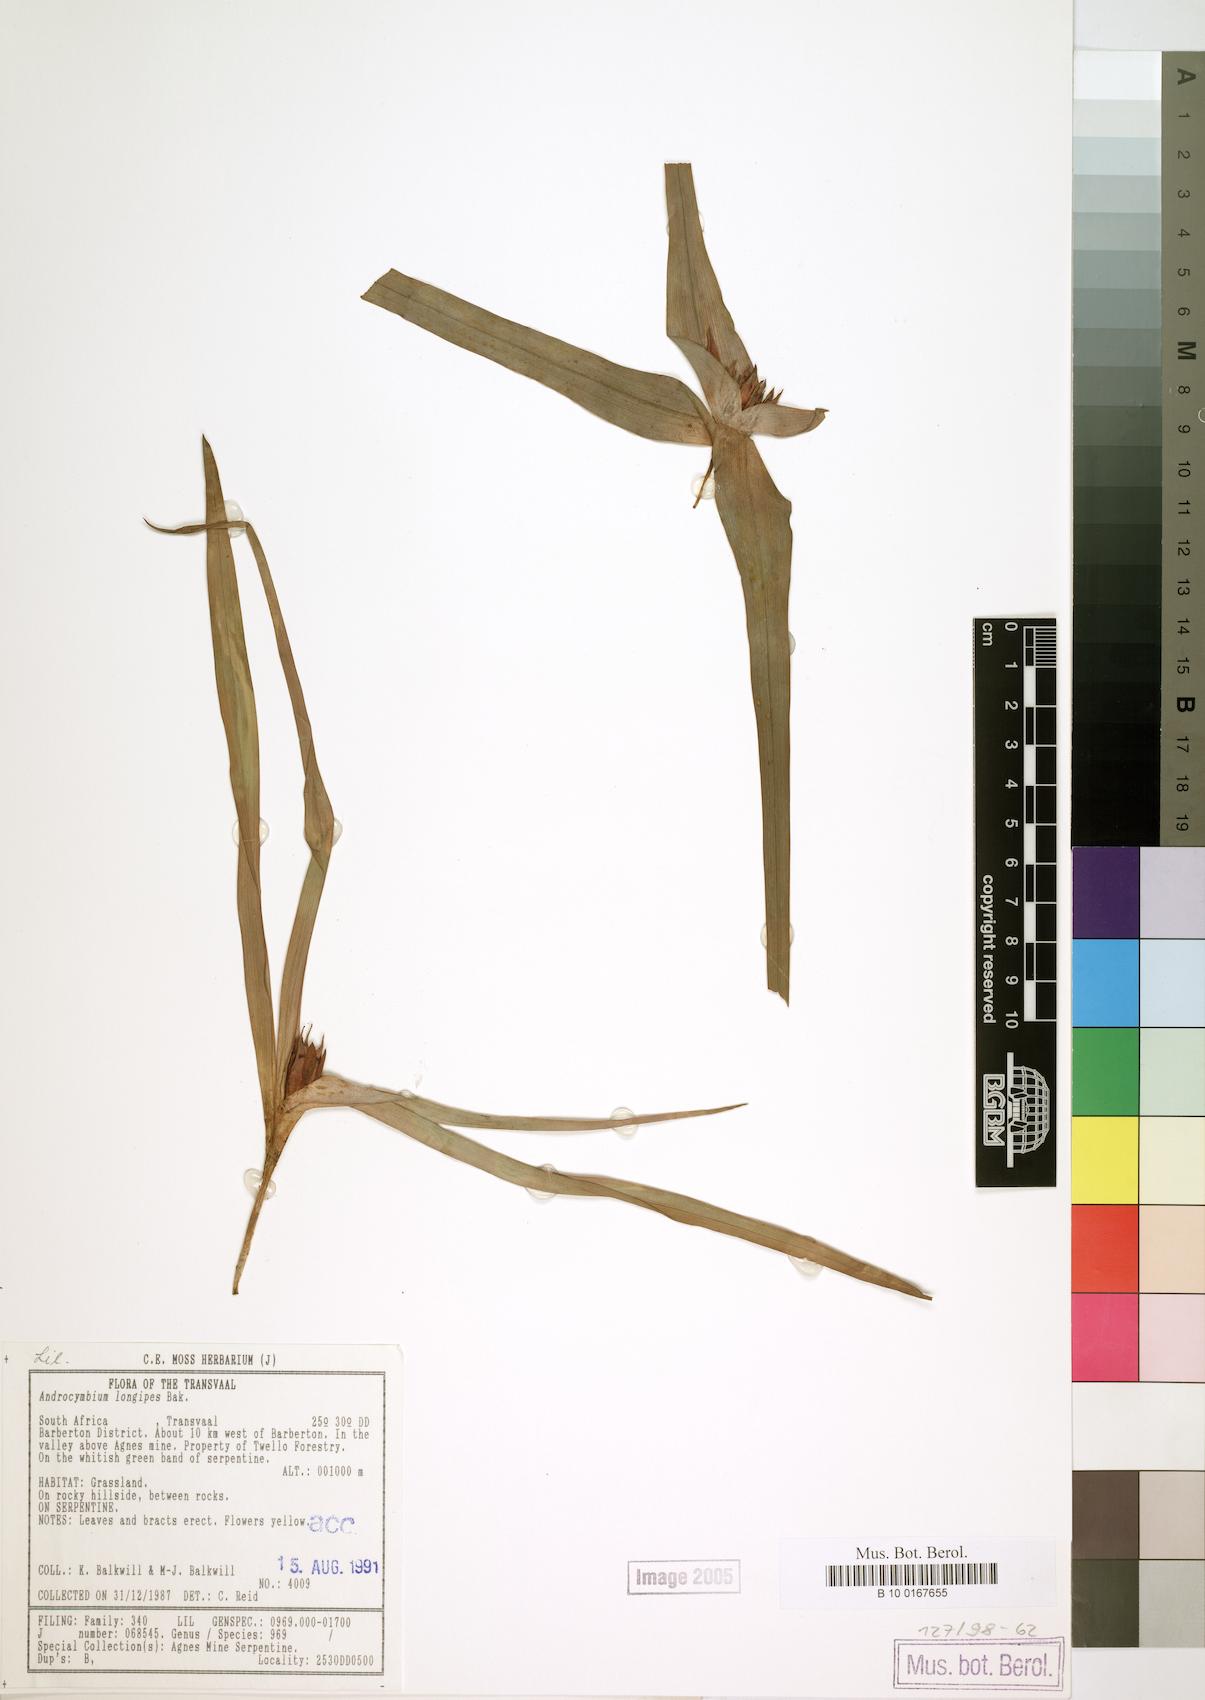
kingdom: Plantae
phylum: Tracheophyta
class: Liliopsida
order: Liliales
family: Colchicaceae
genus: Colchicum
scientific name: Colchicum longipes
